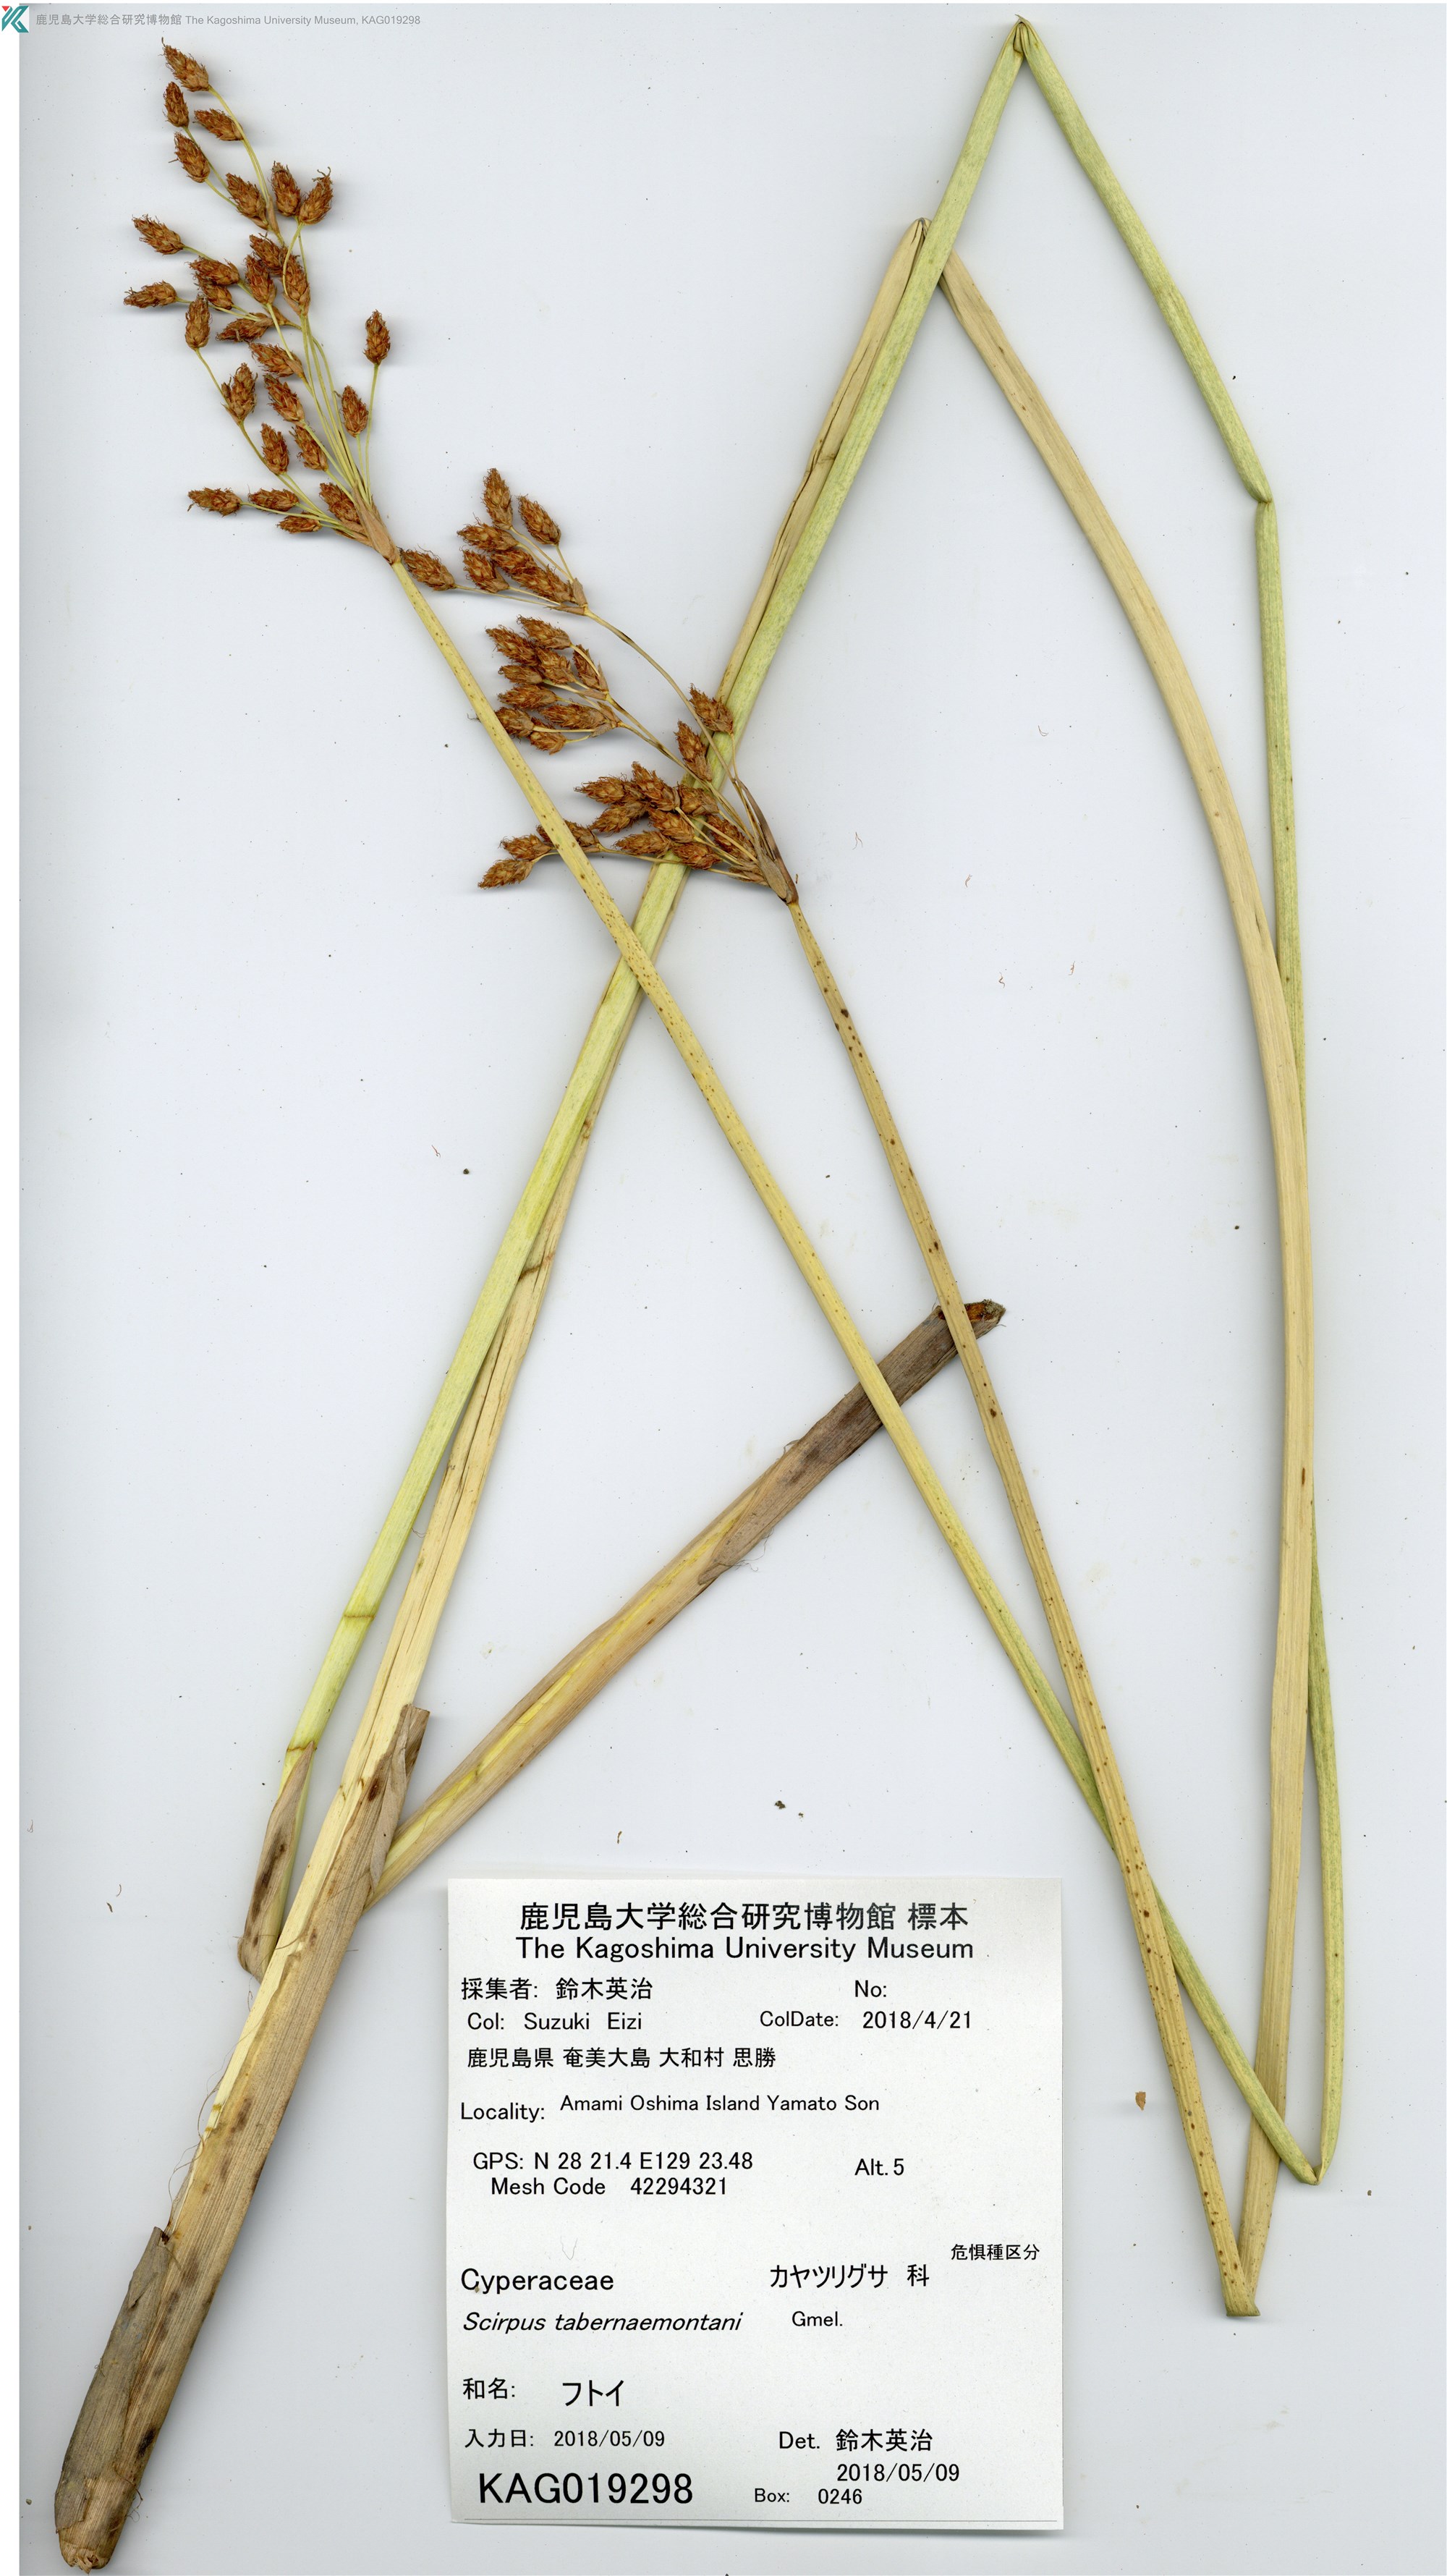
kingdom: Plantae
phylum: Tracheophyta
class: Liliopsida
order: Poales
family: Cyperaceae
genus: Schoenoplectus
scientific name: Schoenoplectus tabernaemontani
